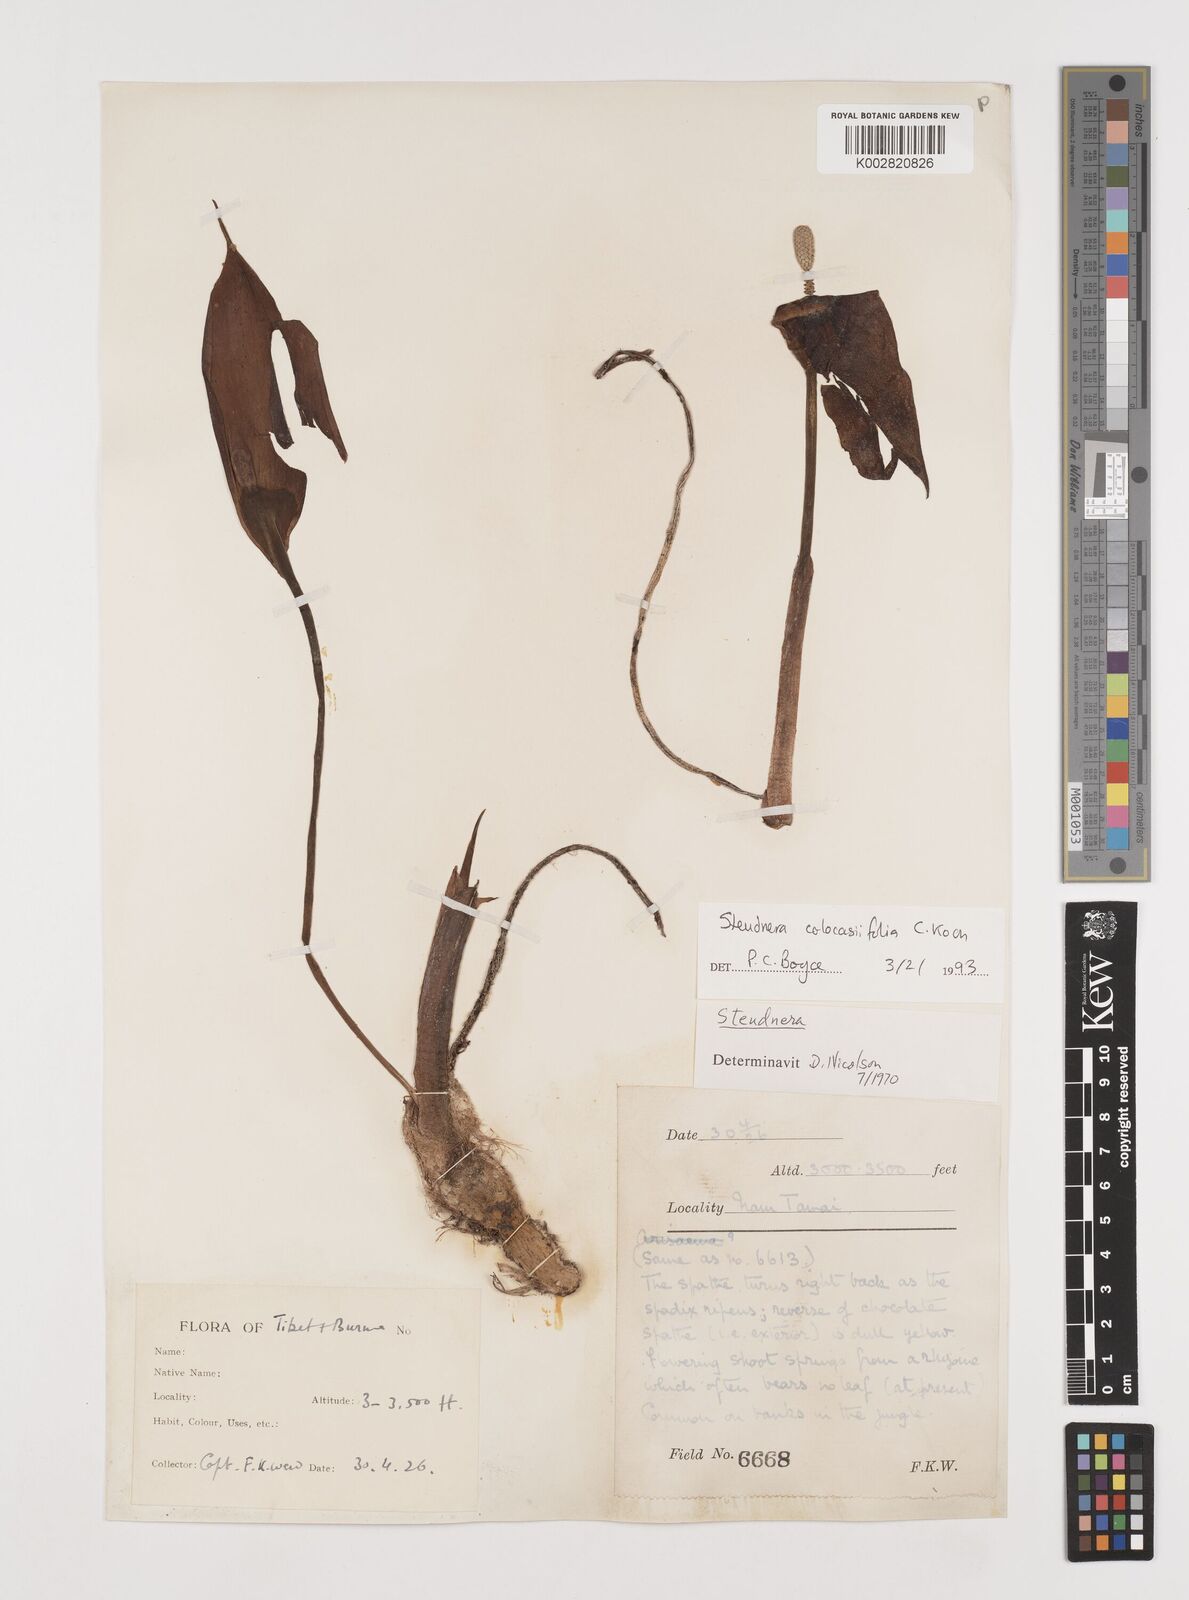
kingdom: Plantae
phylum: Tracheophyta
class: Liliopsida
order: Alismatales
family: Araceae
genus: Steudnera
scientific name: Steudnera colocasiifolia
